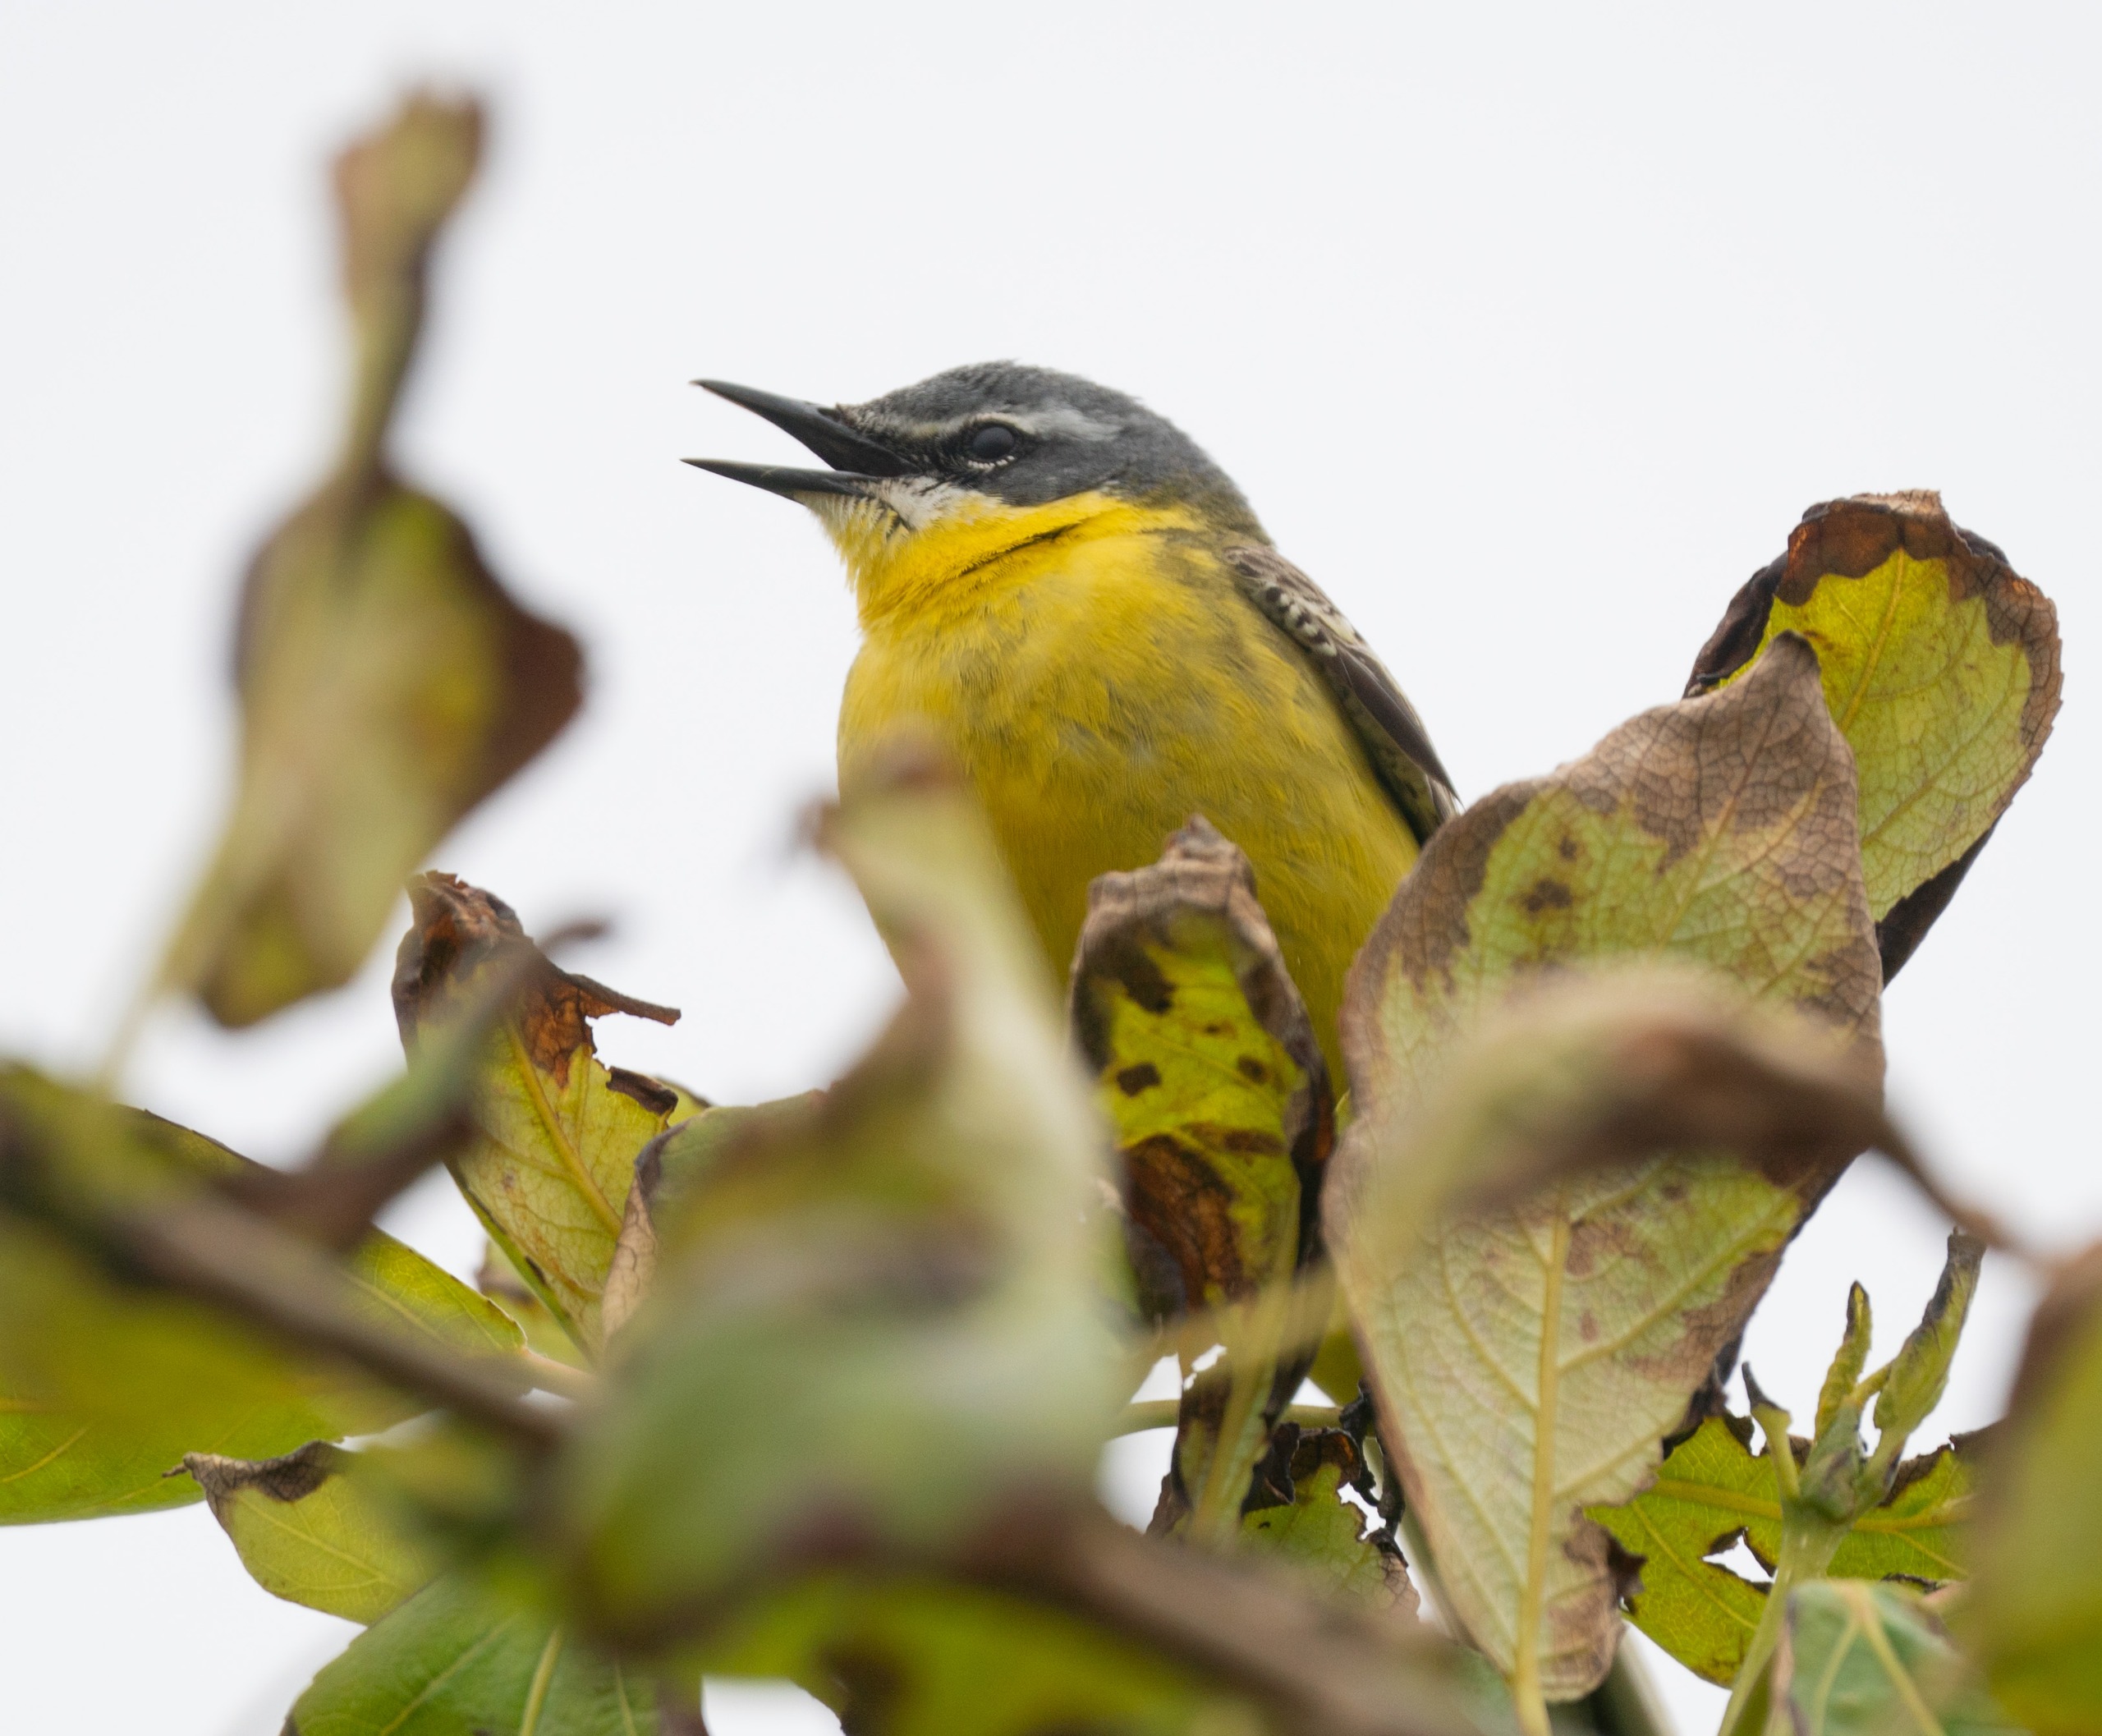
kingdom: Animalia
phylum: Chordata
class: Aves
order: Passeriformes
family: Motacillidae
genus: Motacilla
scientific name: Motacilla flava
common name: Gul vipstjert
